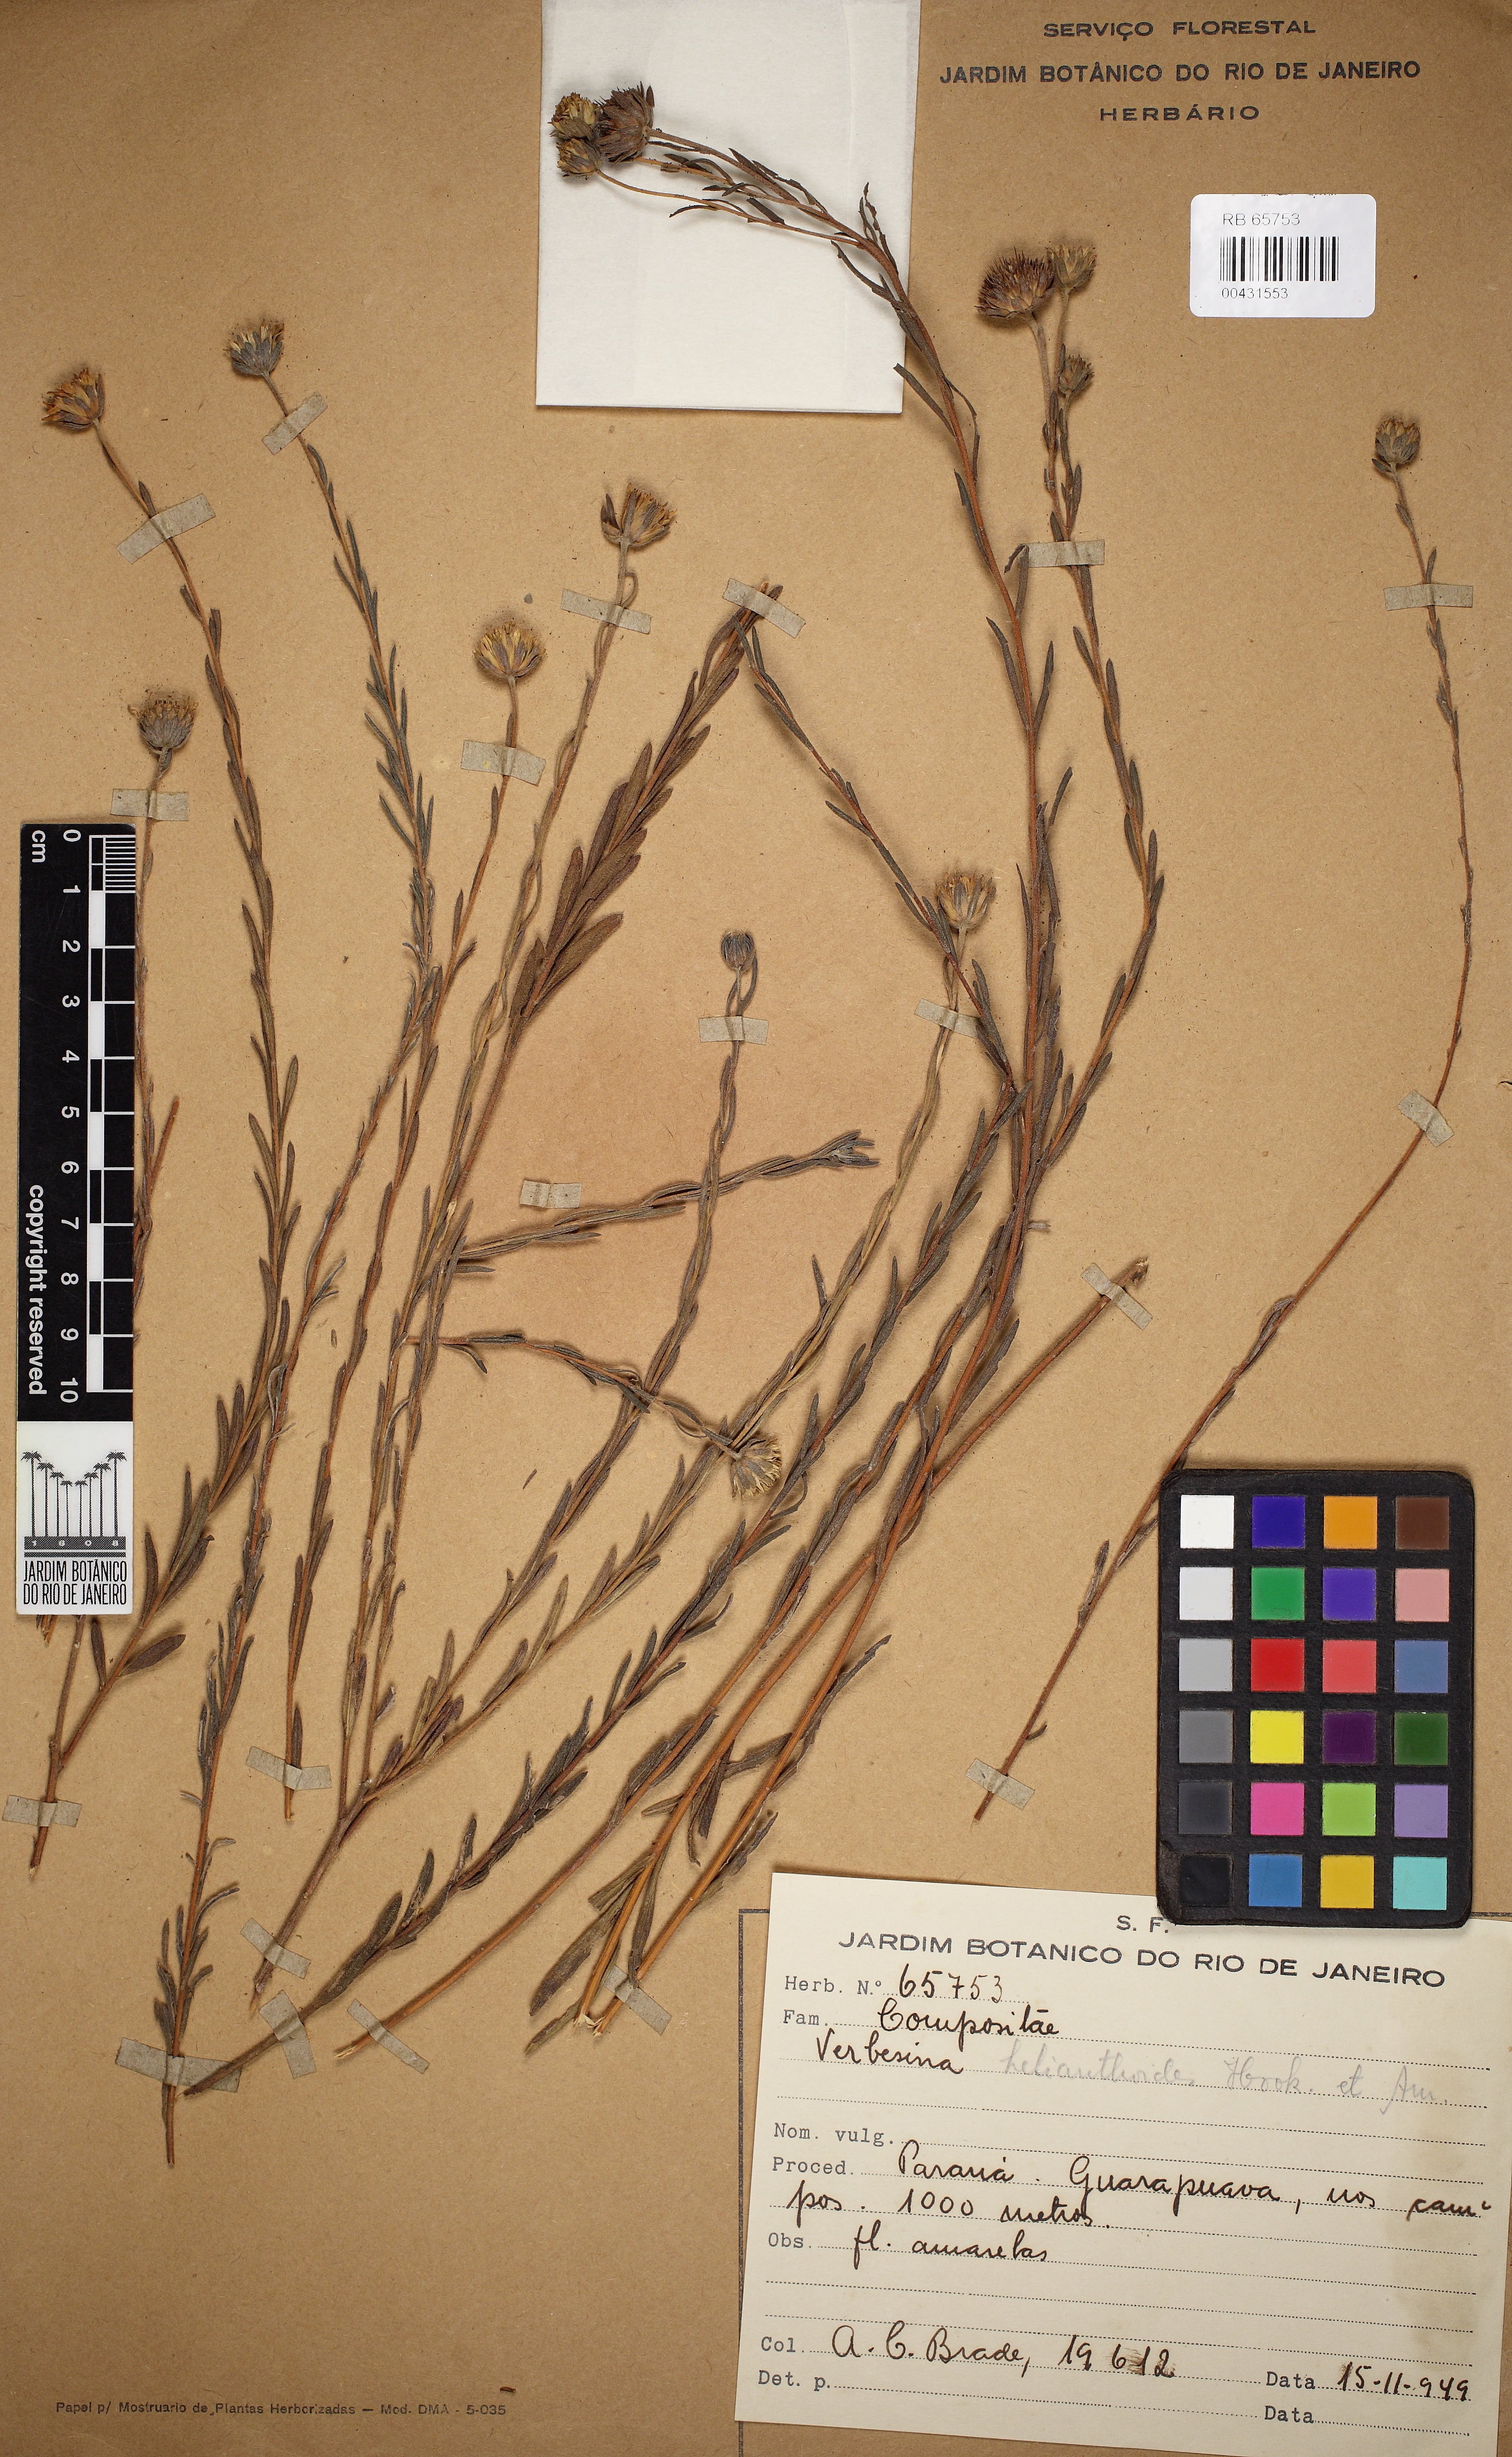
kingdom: Plantae
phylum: Tracheophyta
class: Magnoliopsida
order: Asterales
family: Asteraceae
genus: Verbesina
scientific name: Verbesina glabrata
